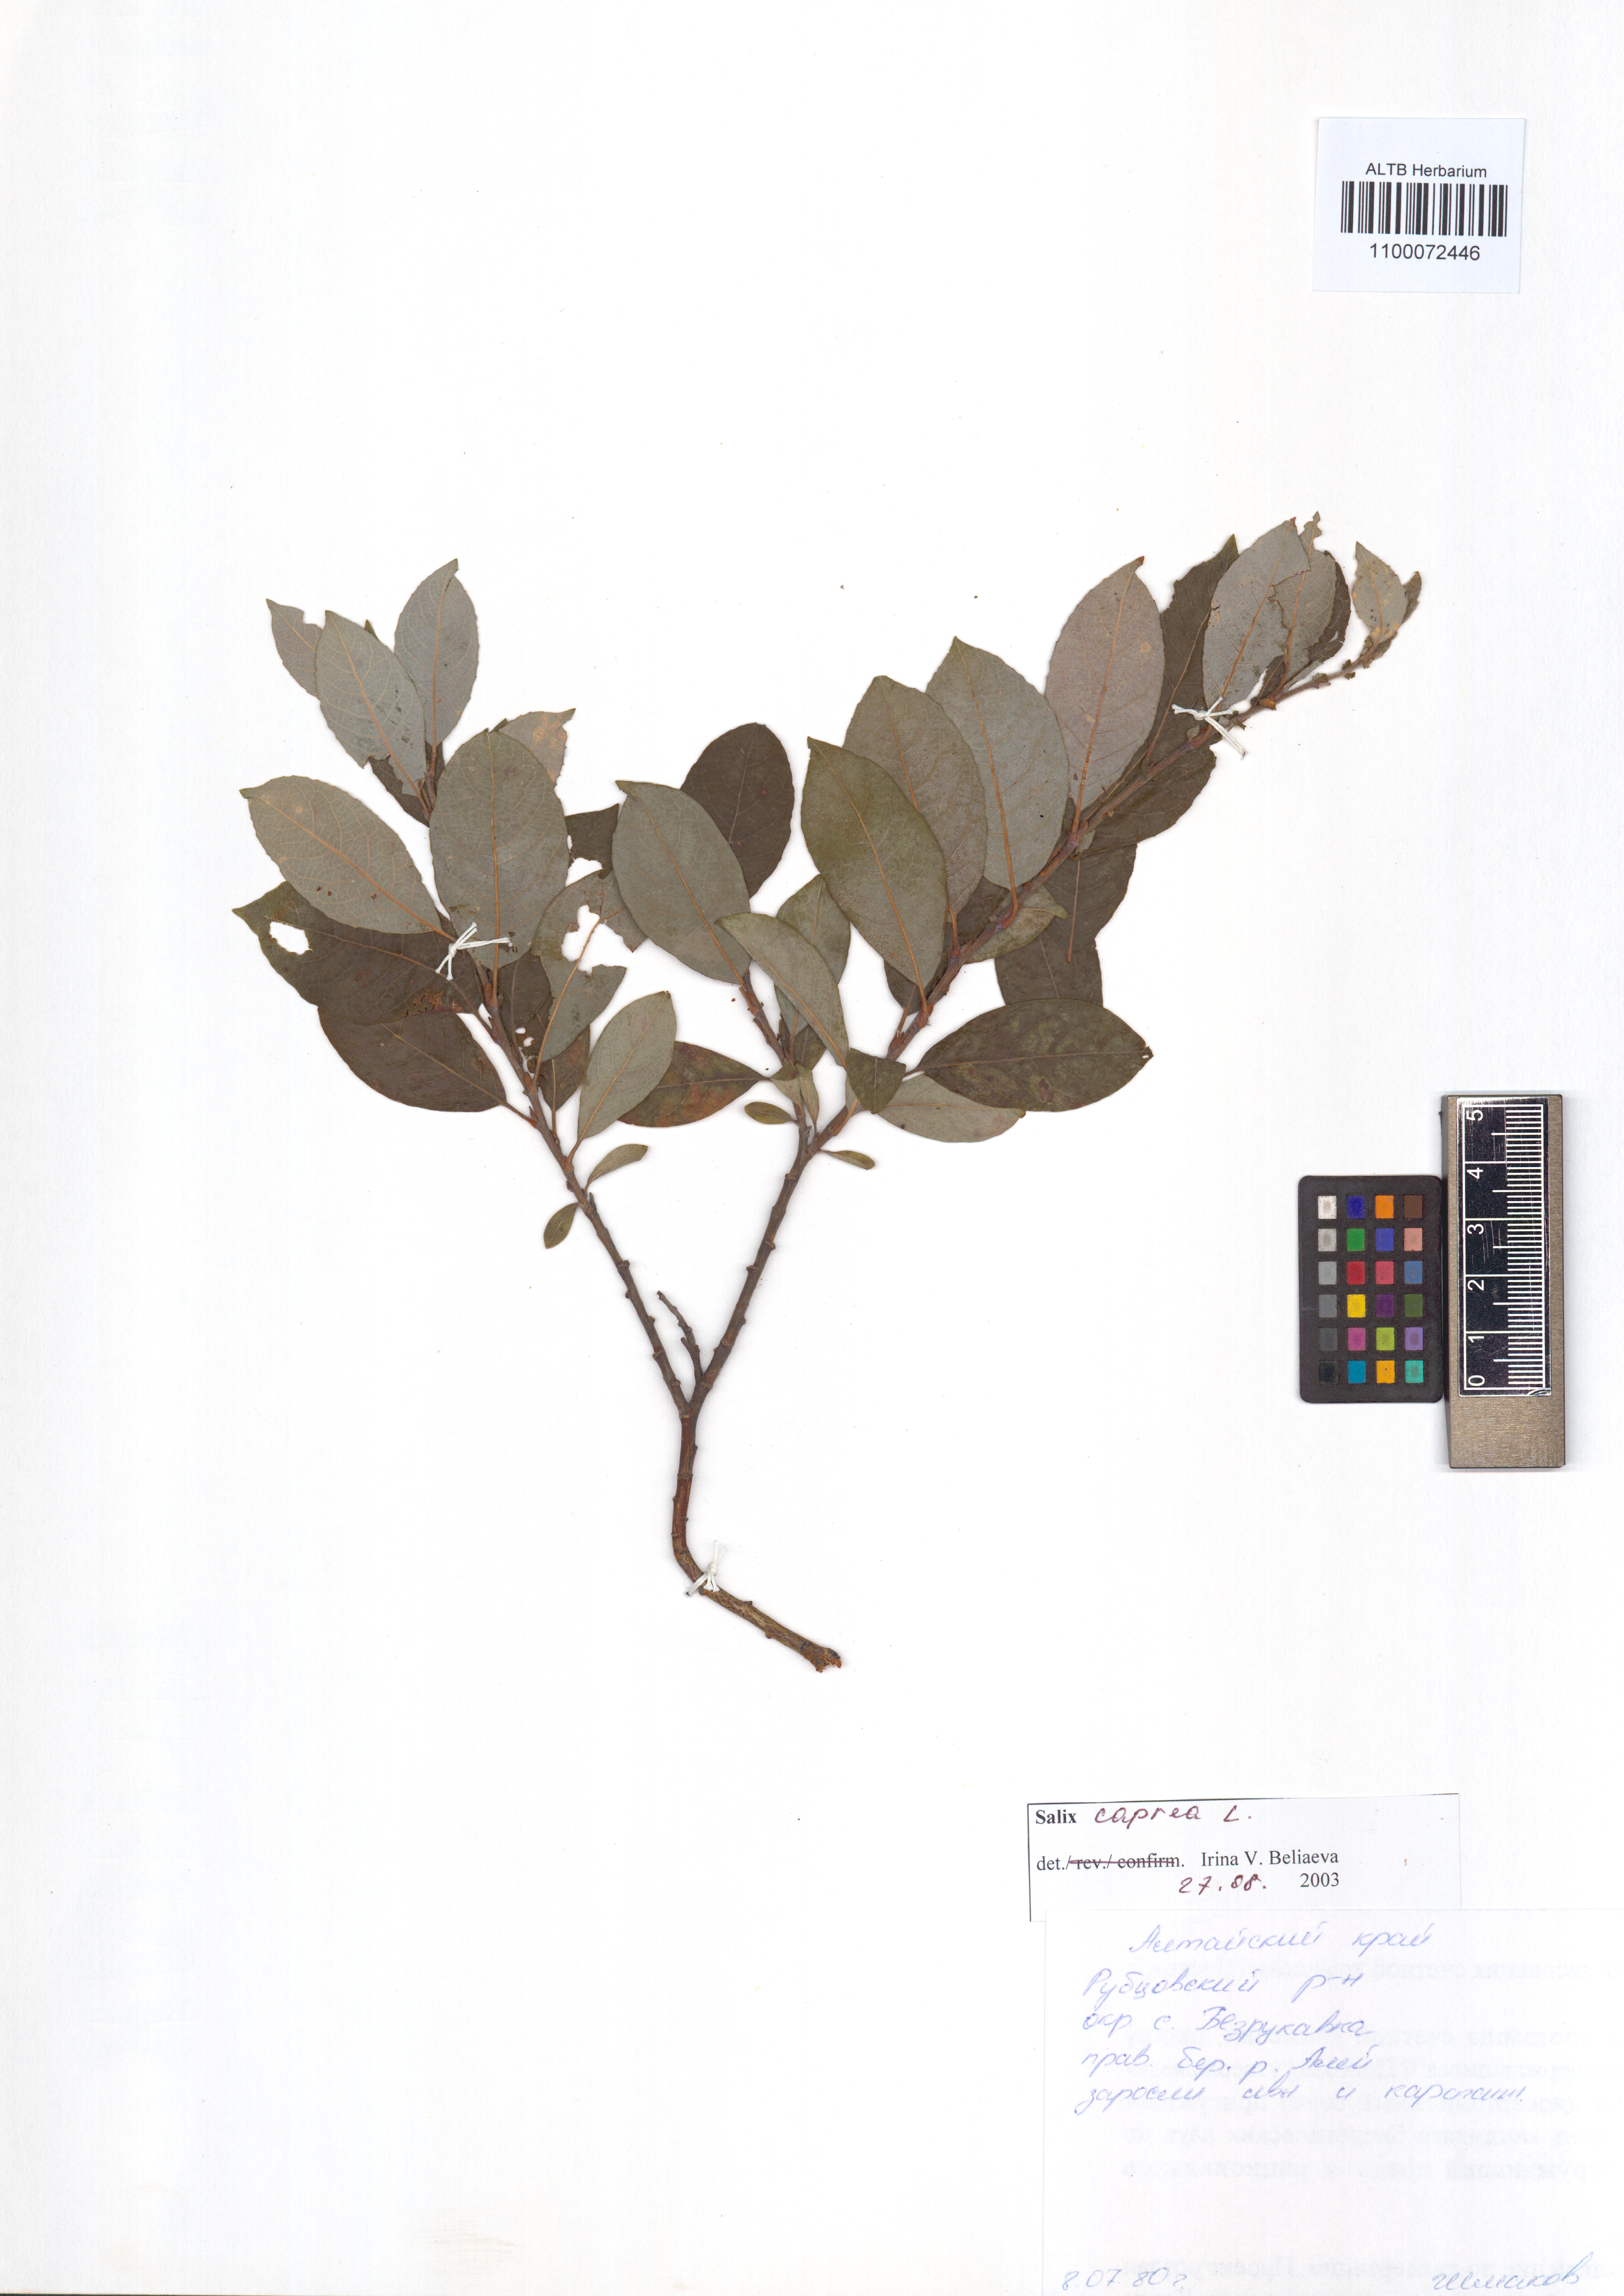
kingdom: Plantae
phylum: Tracheophyta
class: Magnoliopsida
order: Malpighiales
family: Salicaceae
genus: Salix
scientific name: Salix caprea
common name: Goat willow
